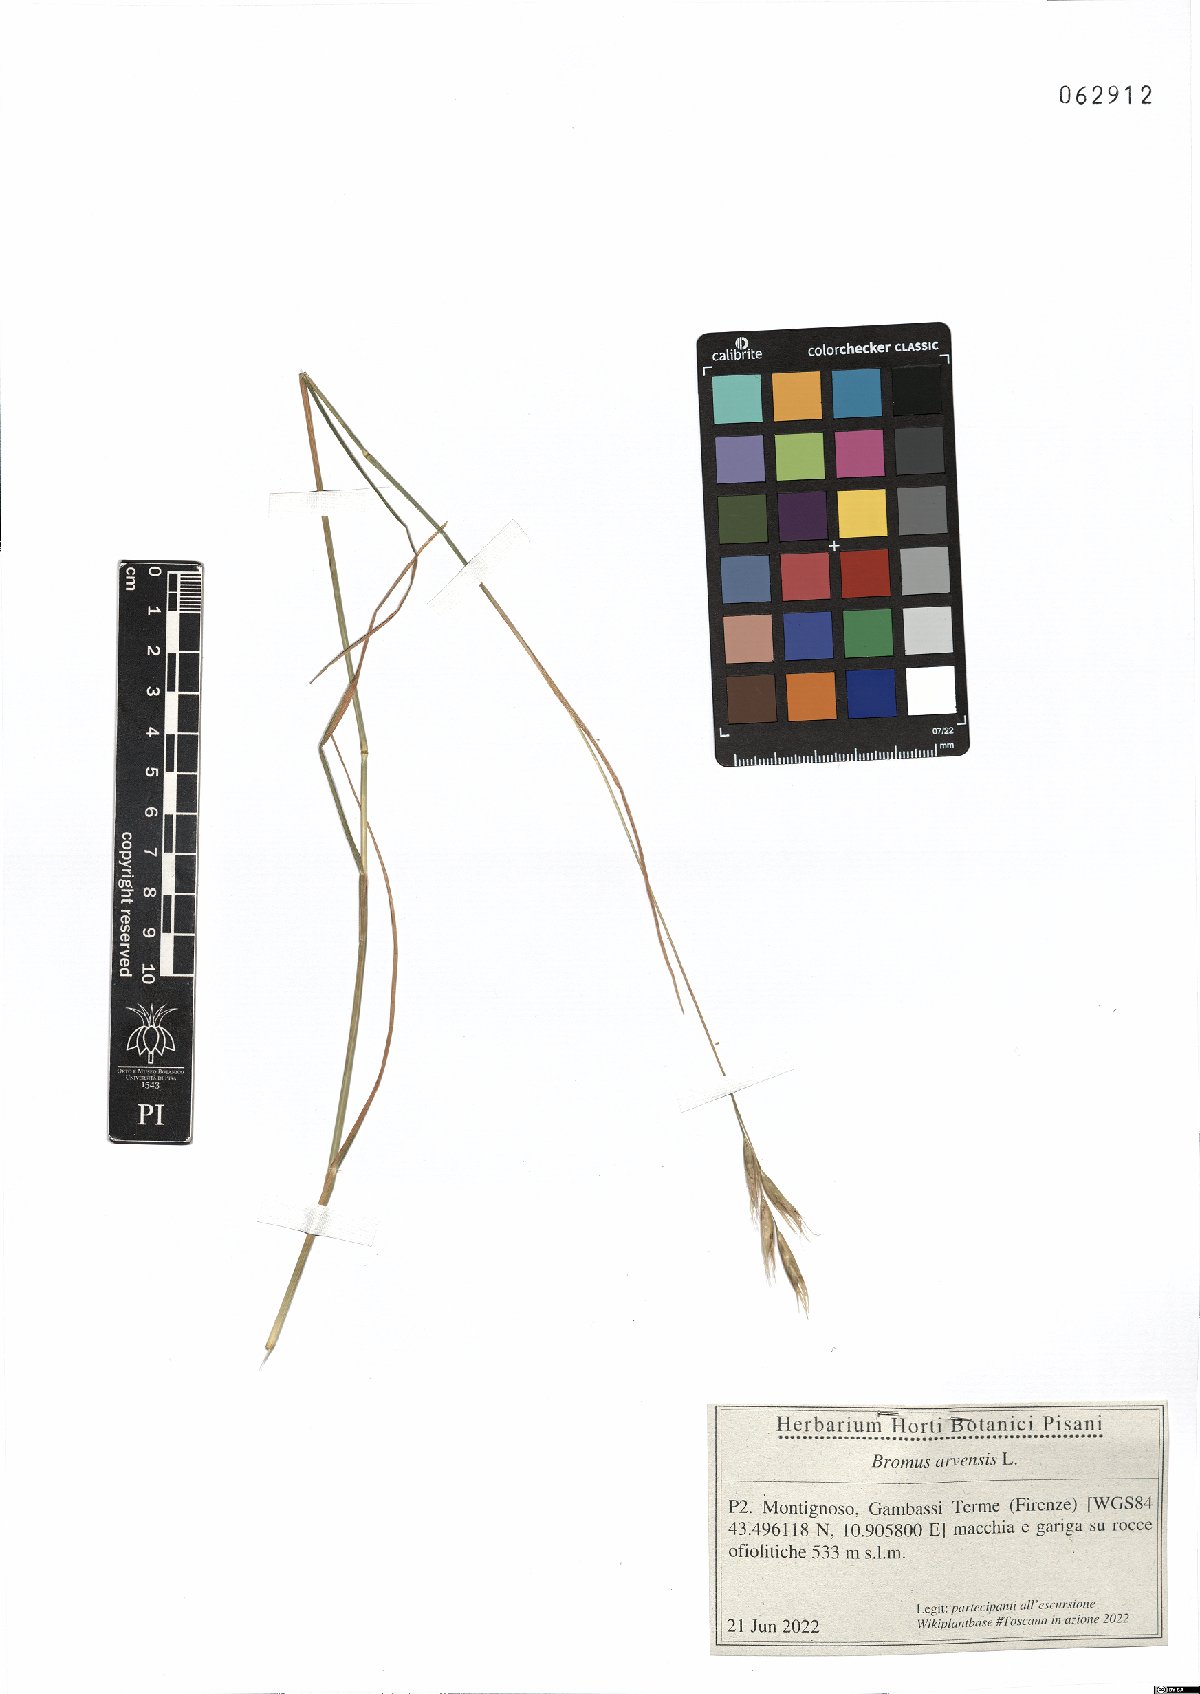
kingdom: Plantae
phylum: Tracheophyta
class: Liliopsida
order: Poales
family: Poaceae
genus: Bromus
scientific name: Bromus arvensis
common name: Field brome
